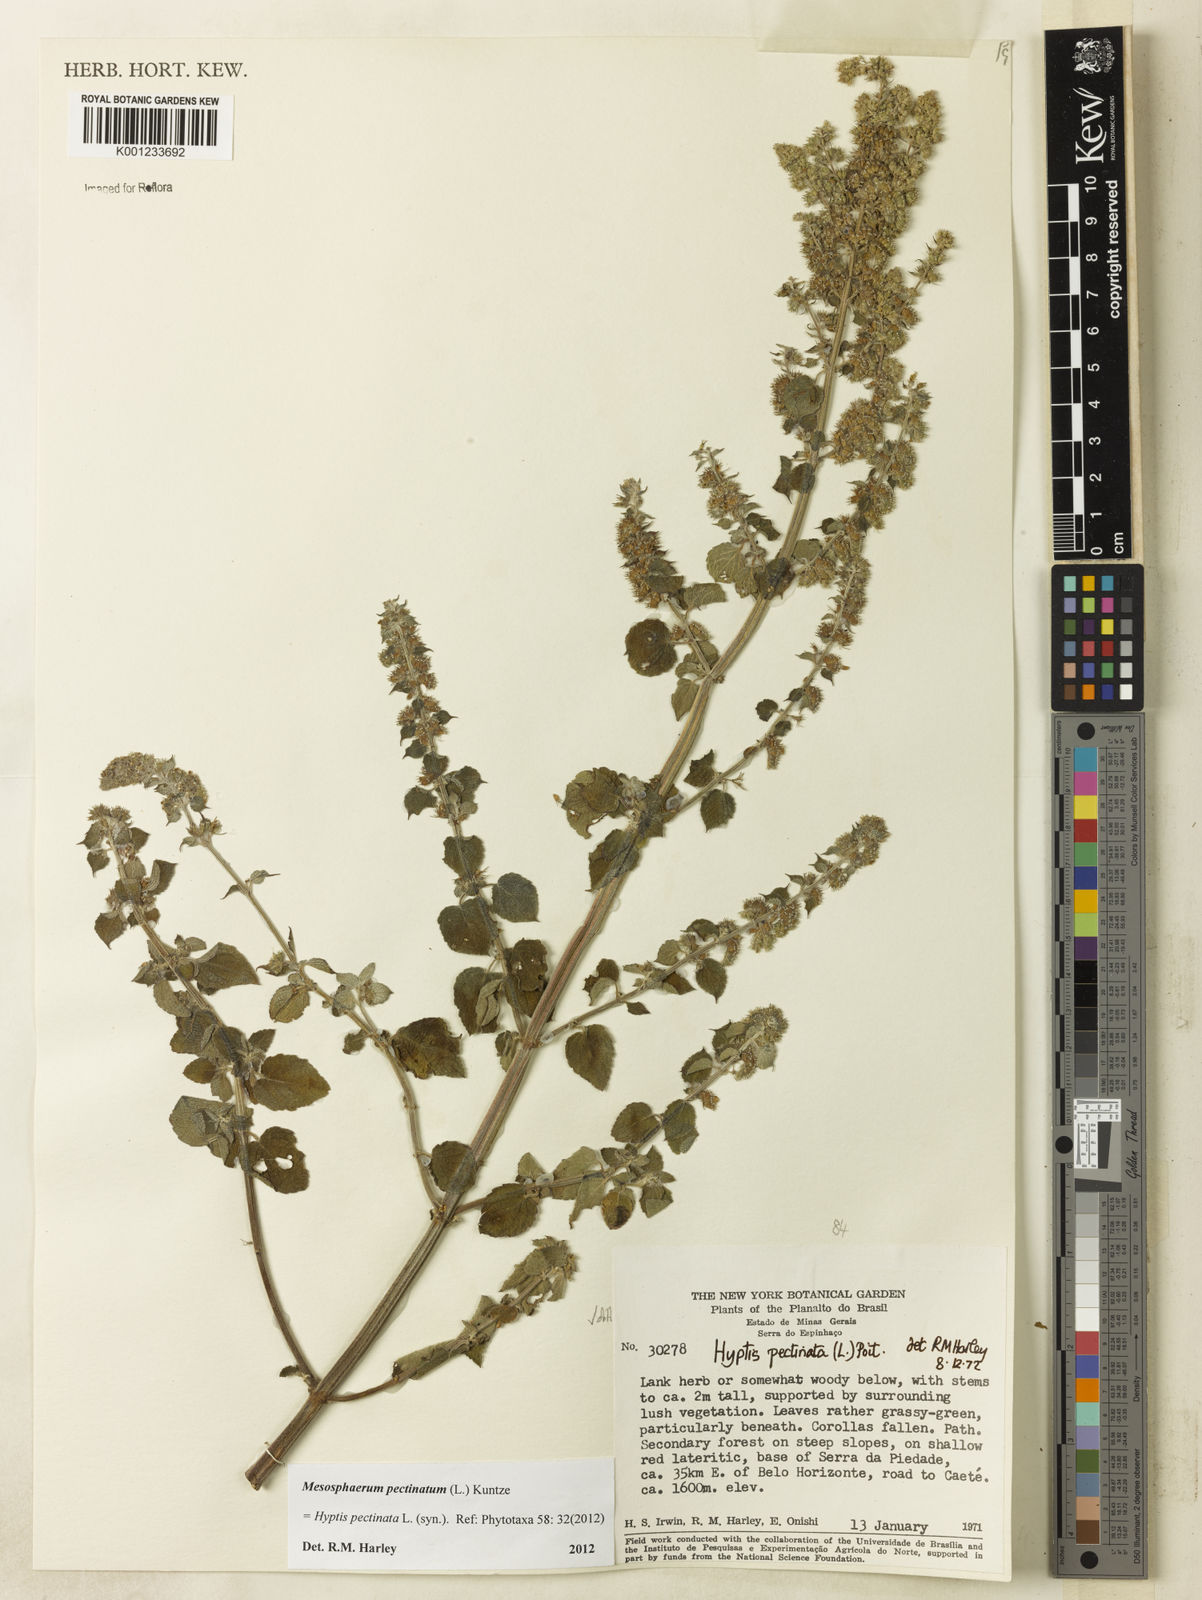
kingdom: Plantae
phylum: Tracheophyta
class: Magnoliopsida
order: Lamiales
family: Lamiaceae
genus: Mesosphaerum
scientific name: Mesosphaerum pectinatum
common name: Comb hyptis
